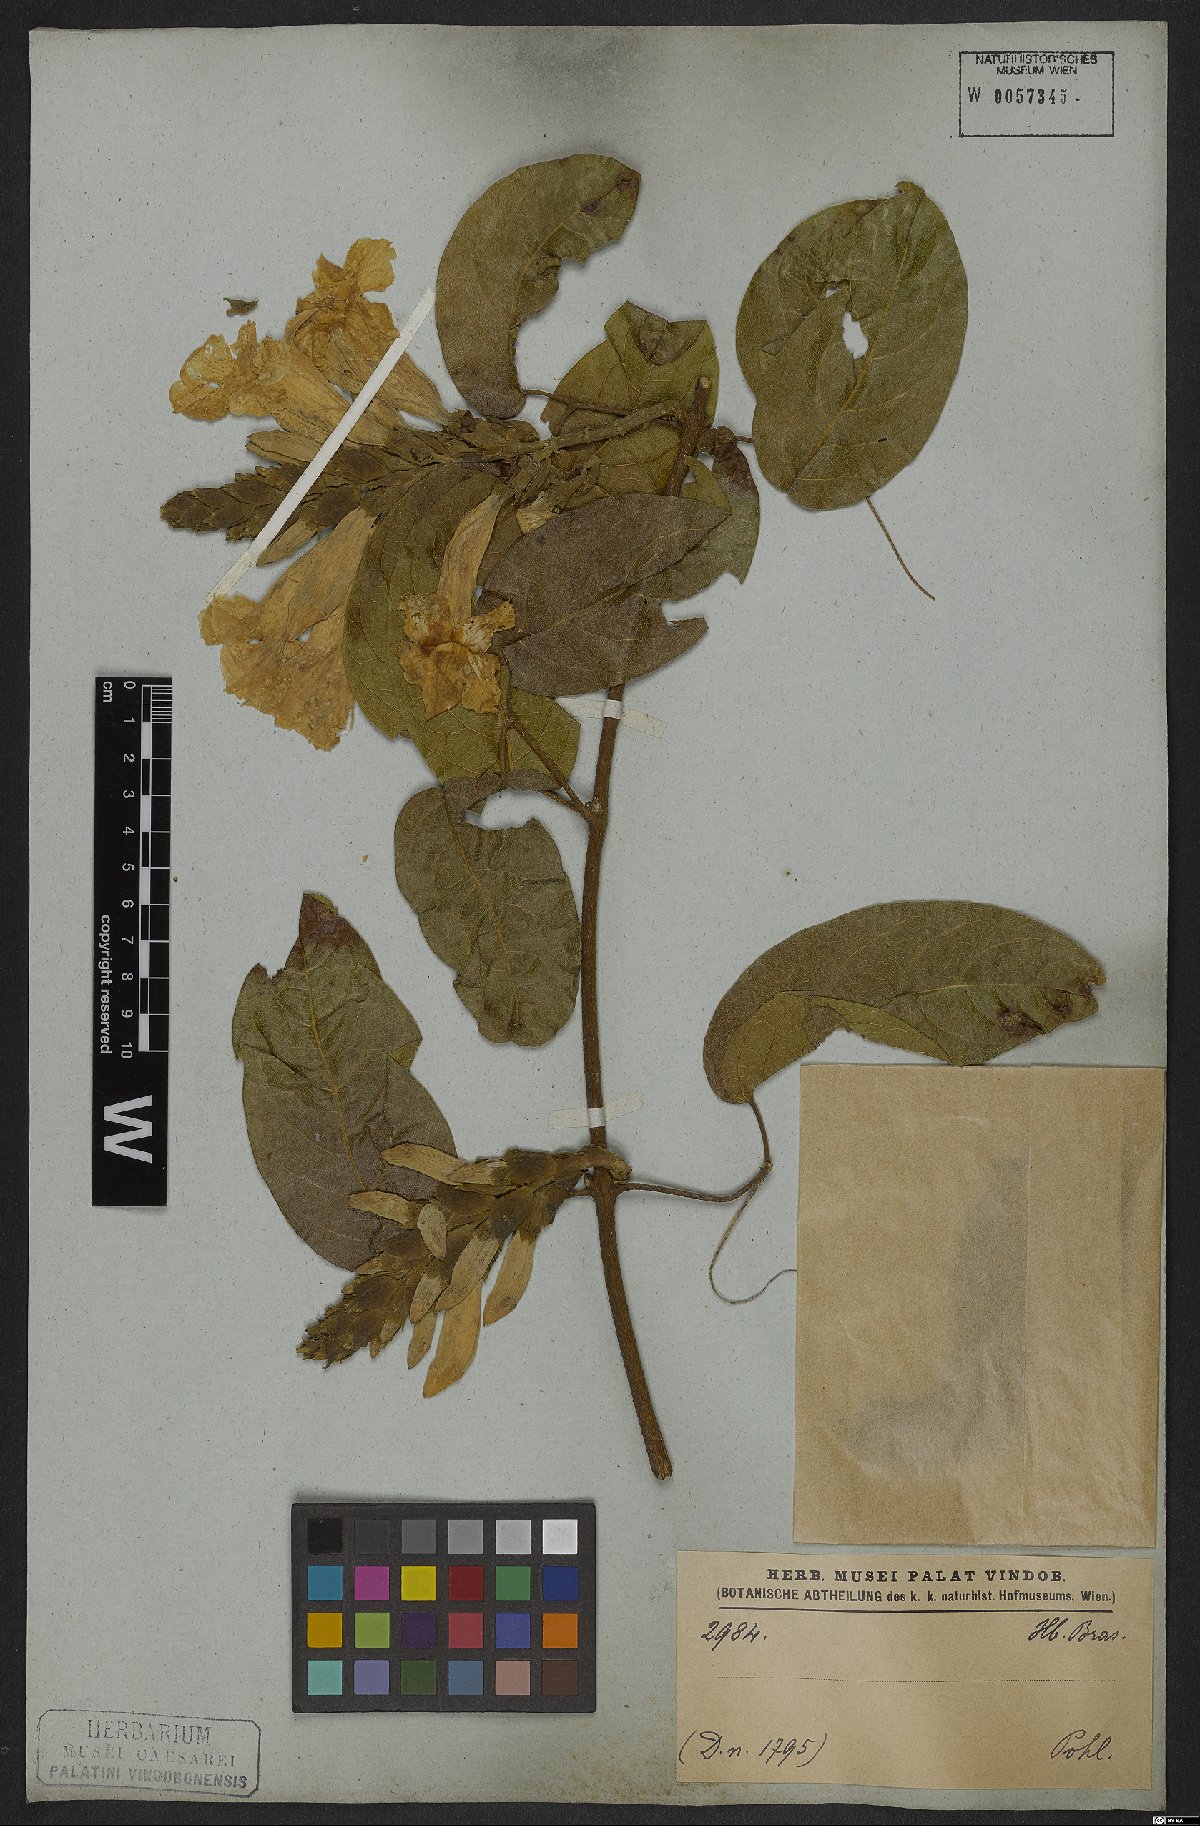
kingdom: Plantae
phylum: Tracheophyta
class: Magnoliopsida
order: Lamiales
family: Bignoniaceae
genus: Adenocalymma
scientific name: Adenocalymma bracteatum
